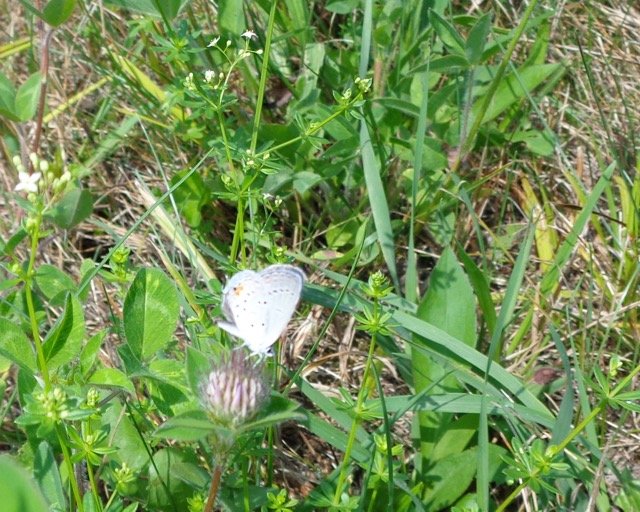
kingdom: Animalia
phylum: Arthropoda
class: Insecta
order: Lepidoptera
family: Lycaenidae
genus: Elkalyce
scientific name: Elkalyce comyntas
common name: Eastern Tailed-Blue
